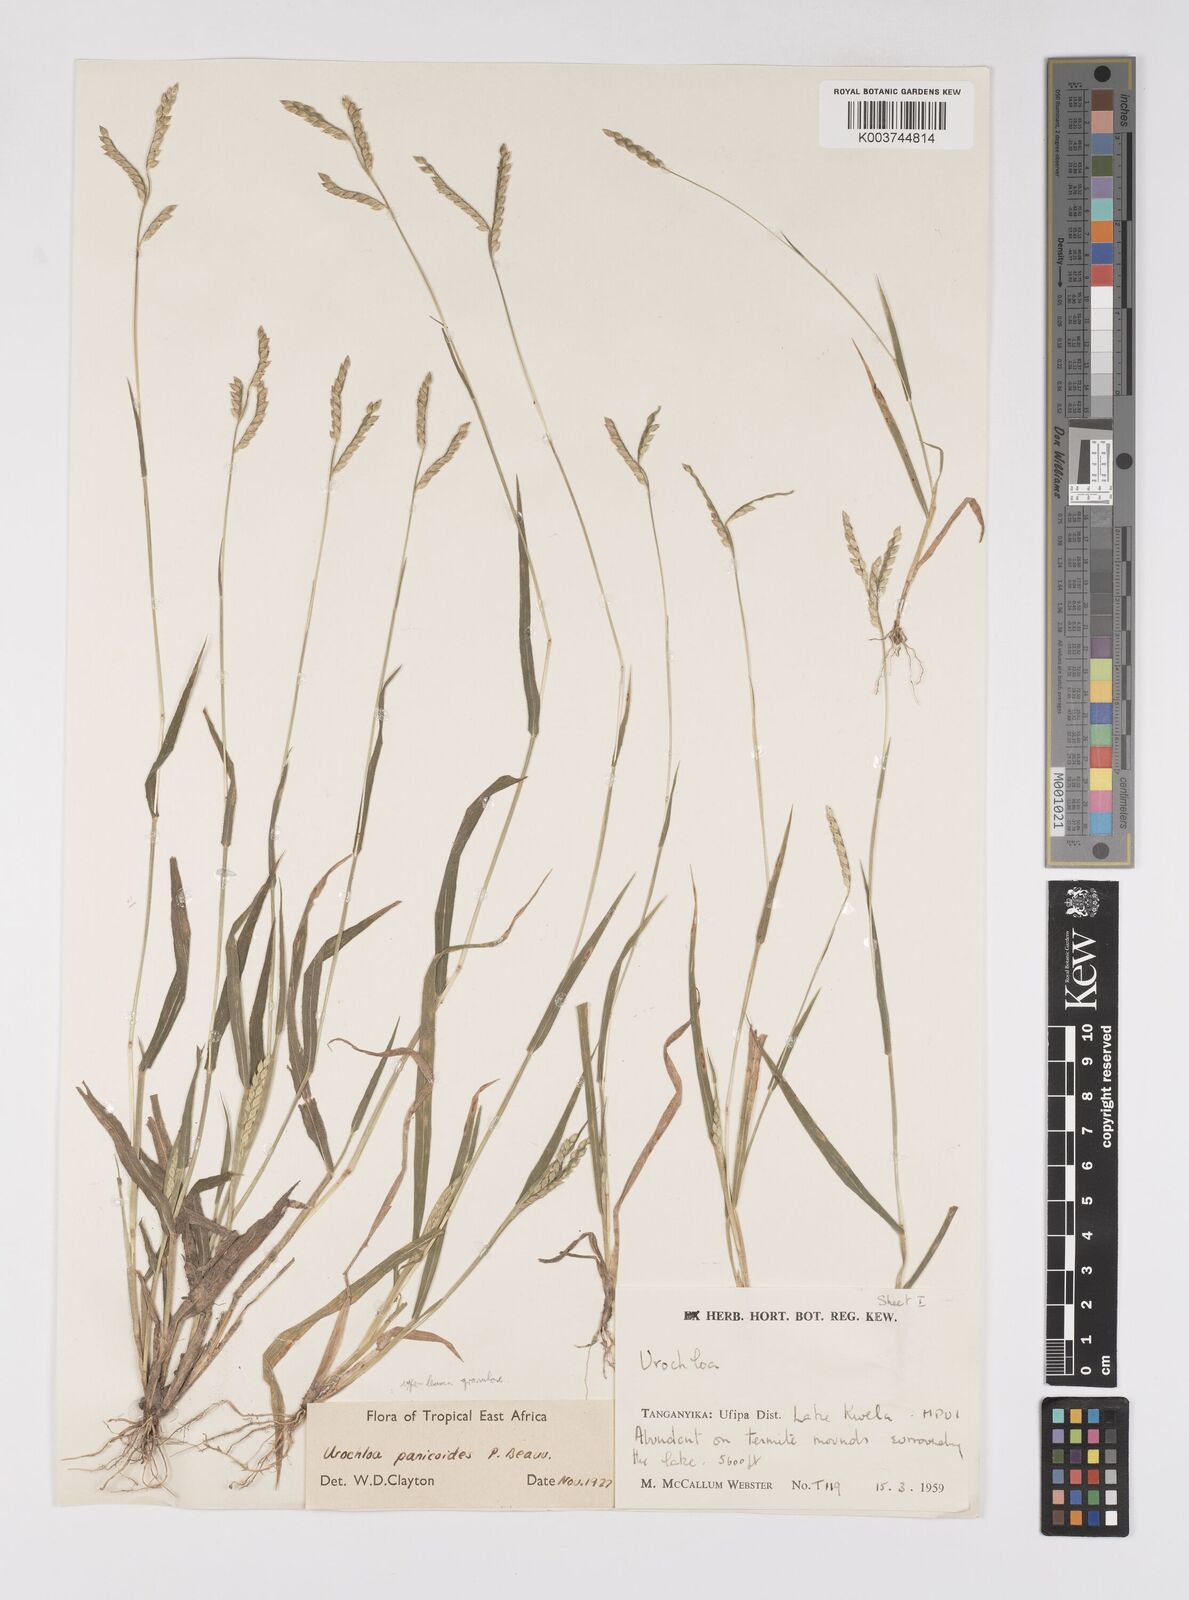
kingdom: Plantae
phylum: Tracheophyta
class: Liliopsida
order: Poales
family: Poaceae
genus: Urochloa
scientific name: Urochloa panicoides
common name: Sharp-flowered signal-grass
